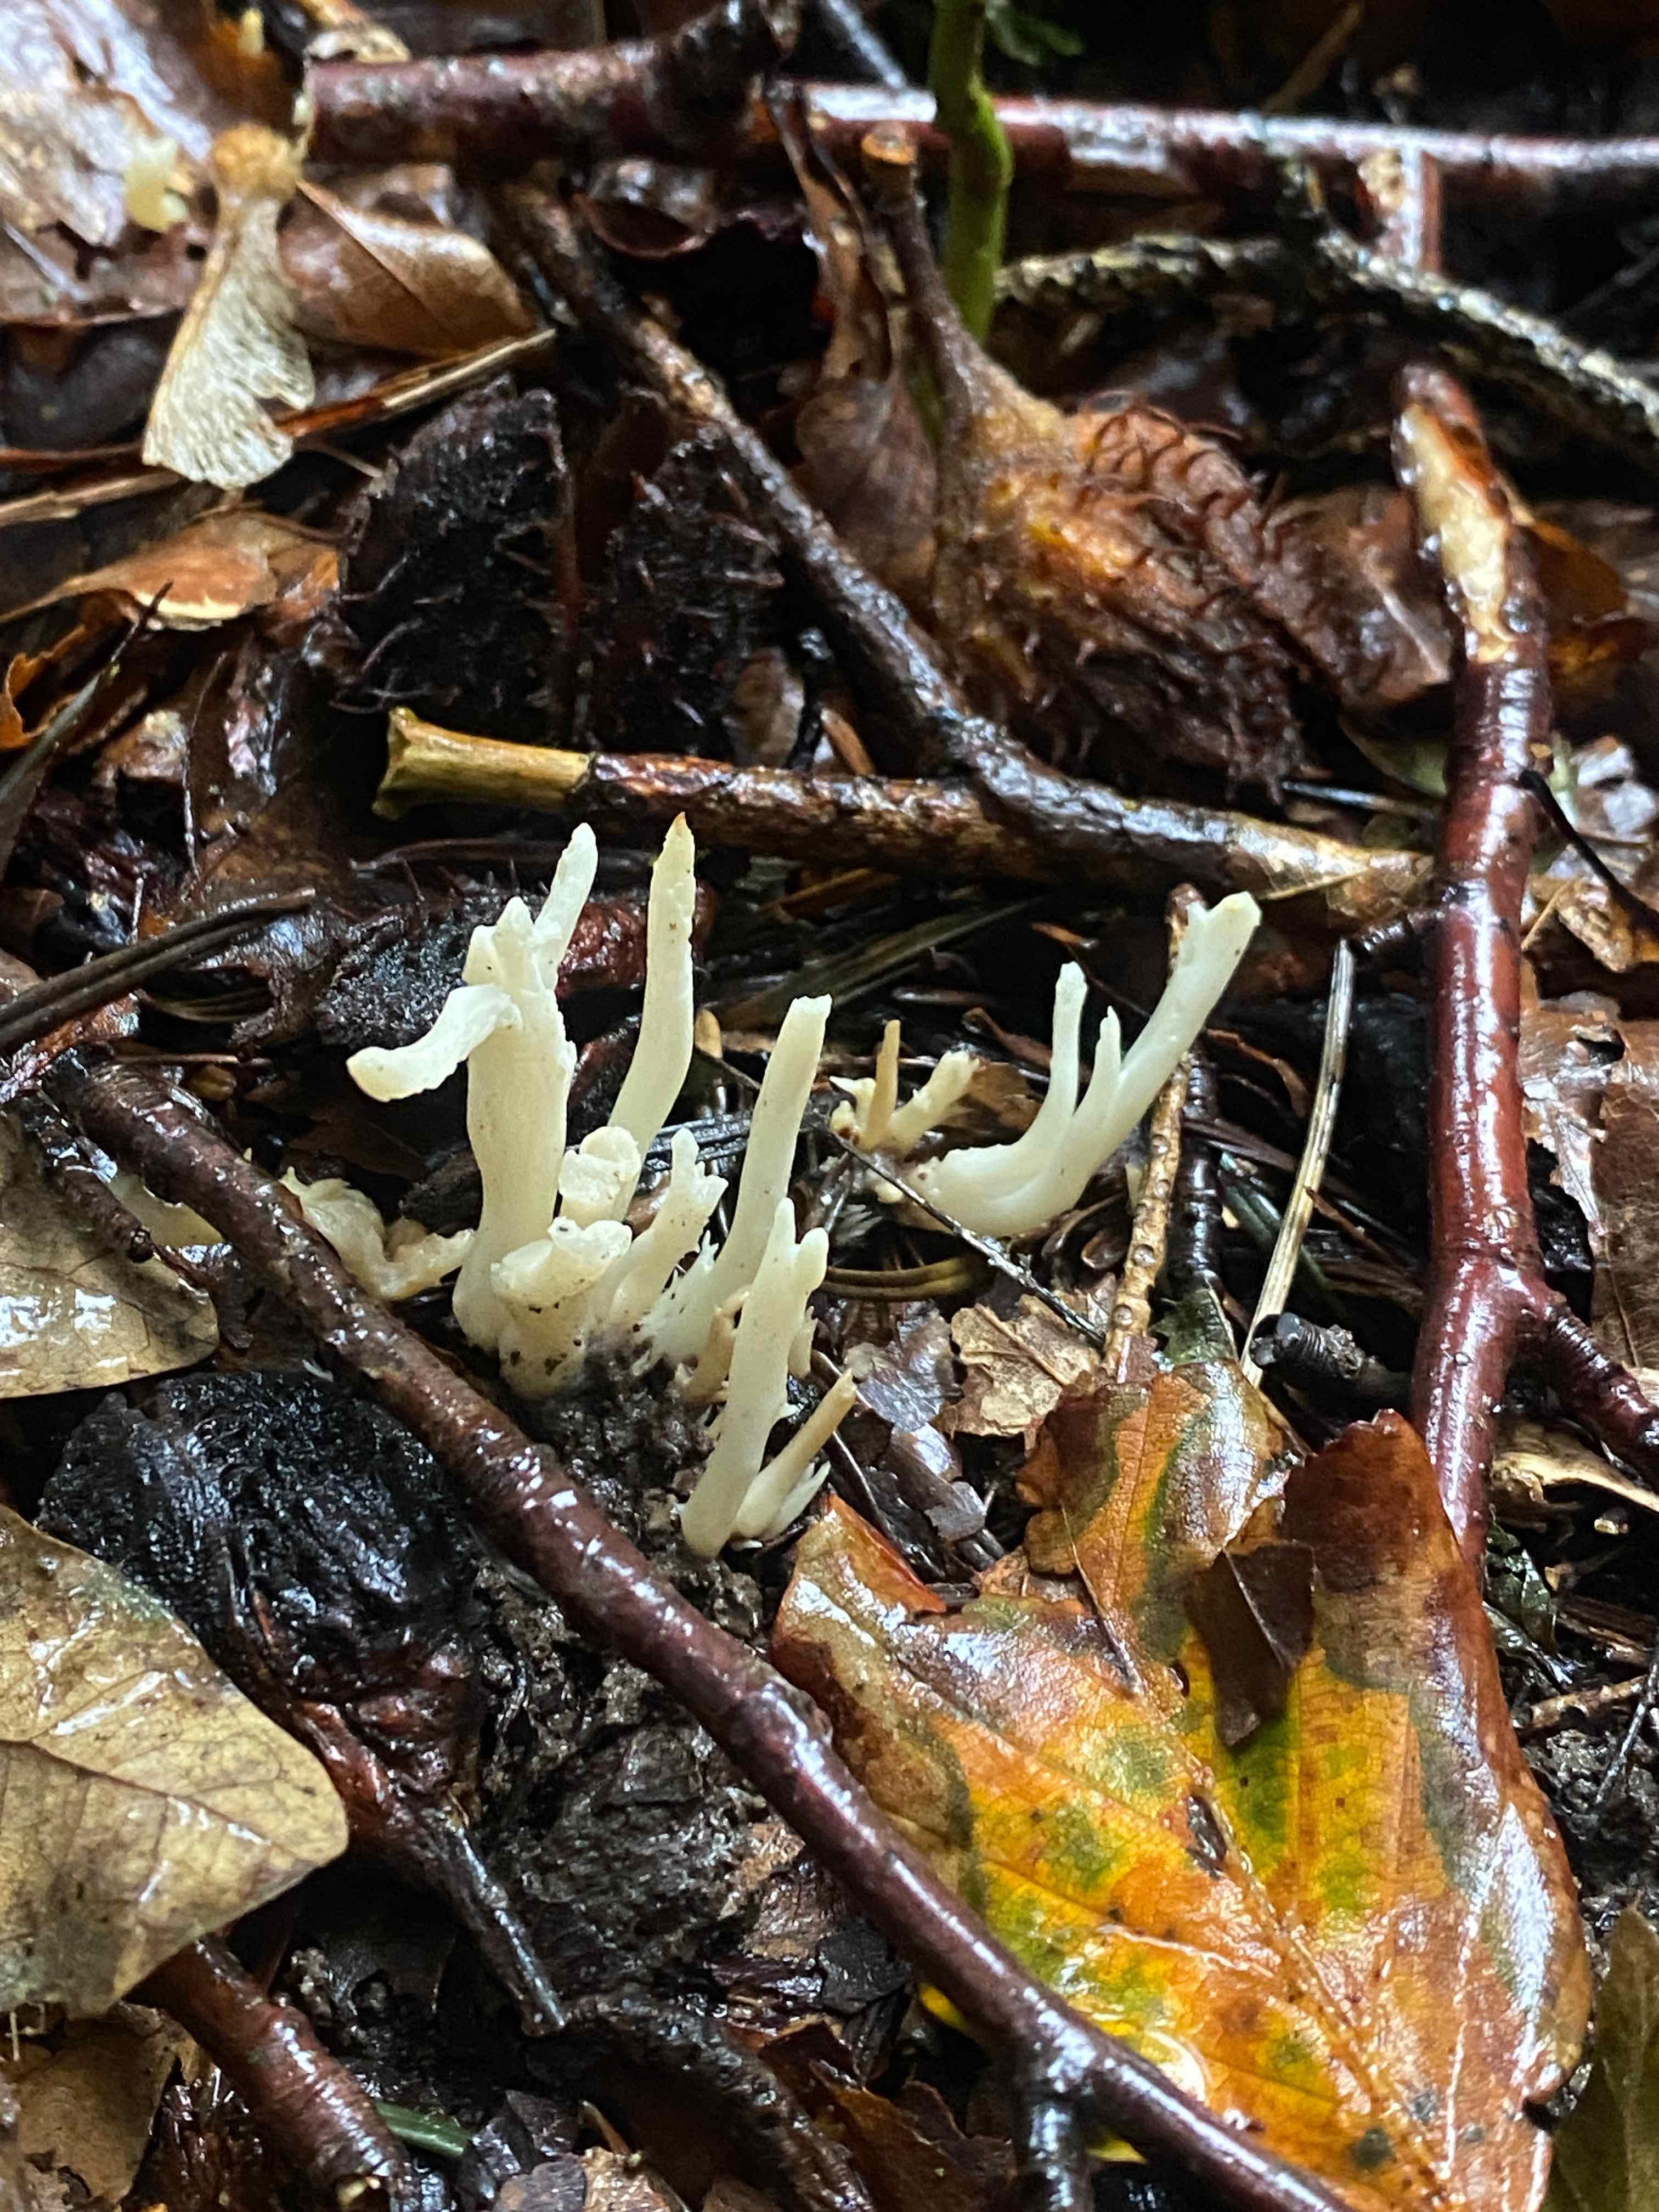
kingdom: Fungi
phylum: Basidiomycota
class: Agaricomycetes
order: Cantharellales
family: Hydnaceae
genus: Clavulina
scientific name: Clavulina
